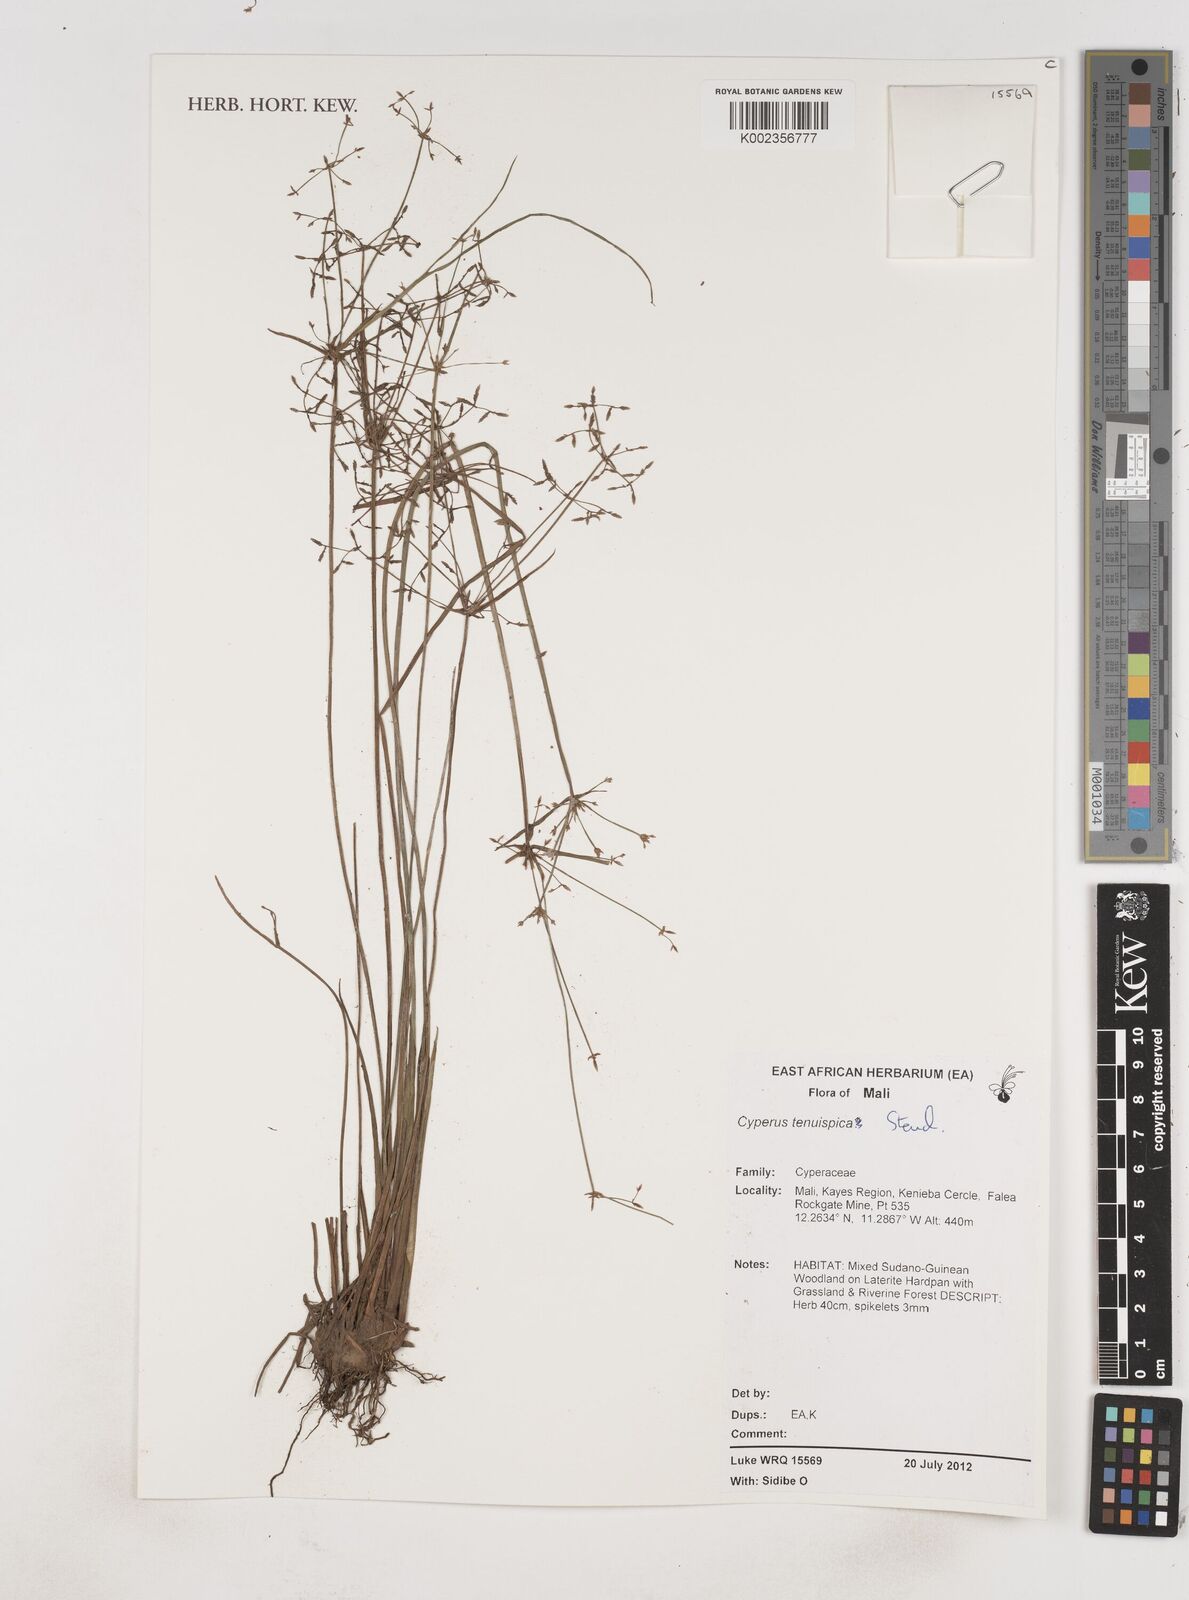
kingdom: Plantae
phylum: Tracheophyta
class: Liliopsida
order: Poales
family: Cyperaceae
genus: Cyperus
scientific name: Cyperus tenuispica
